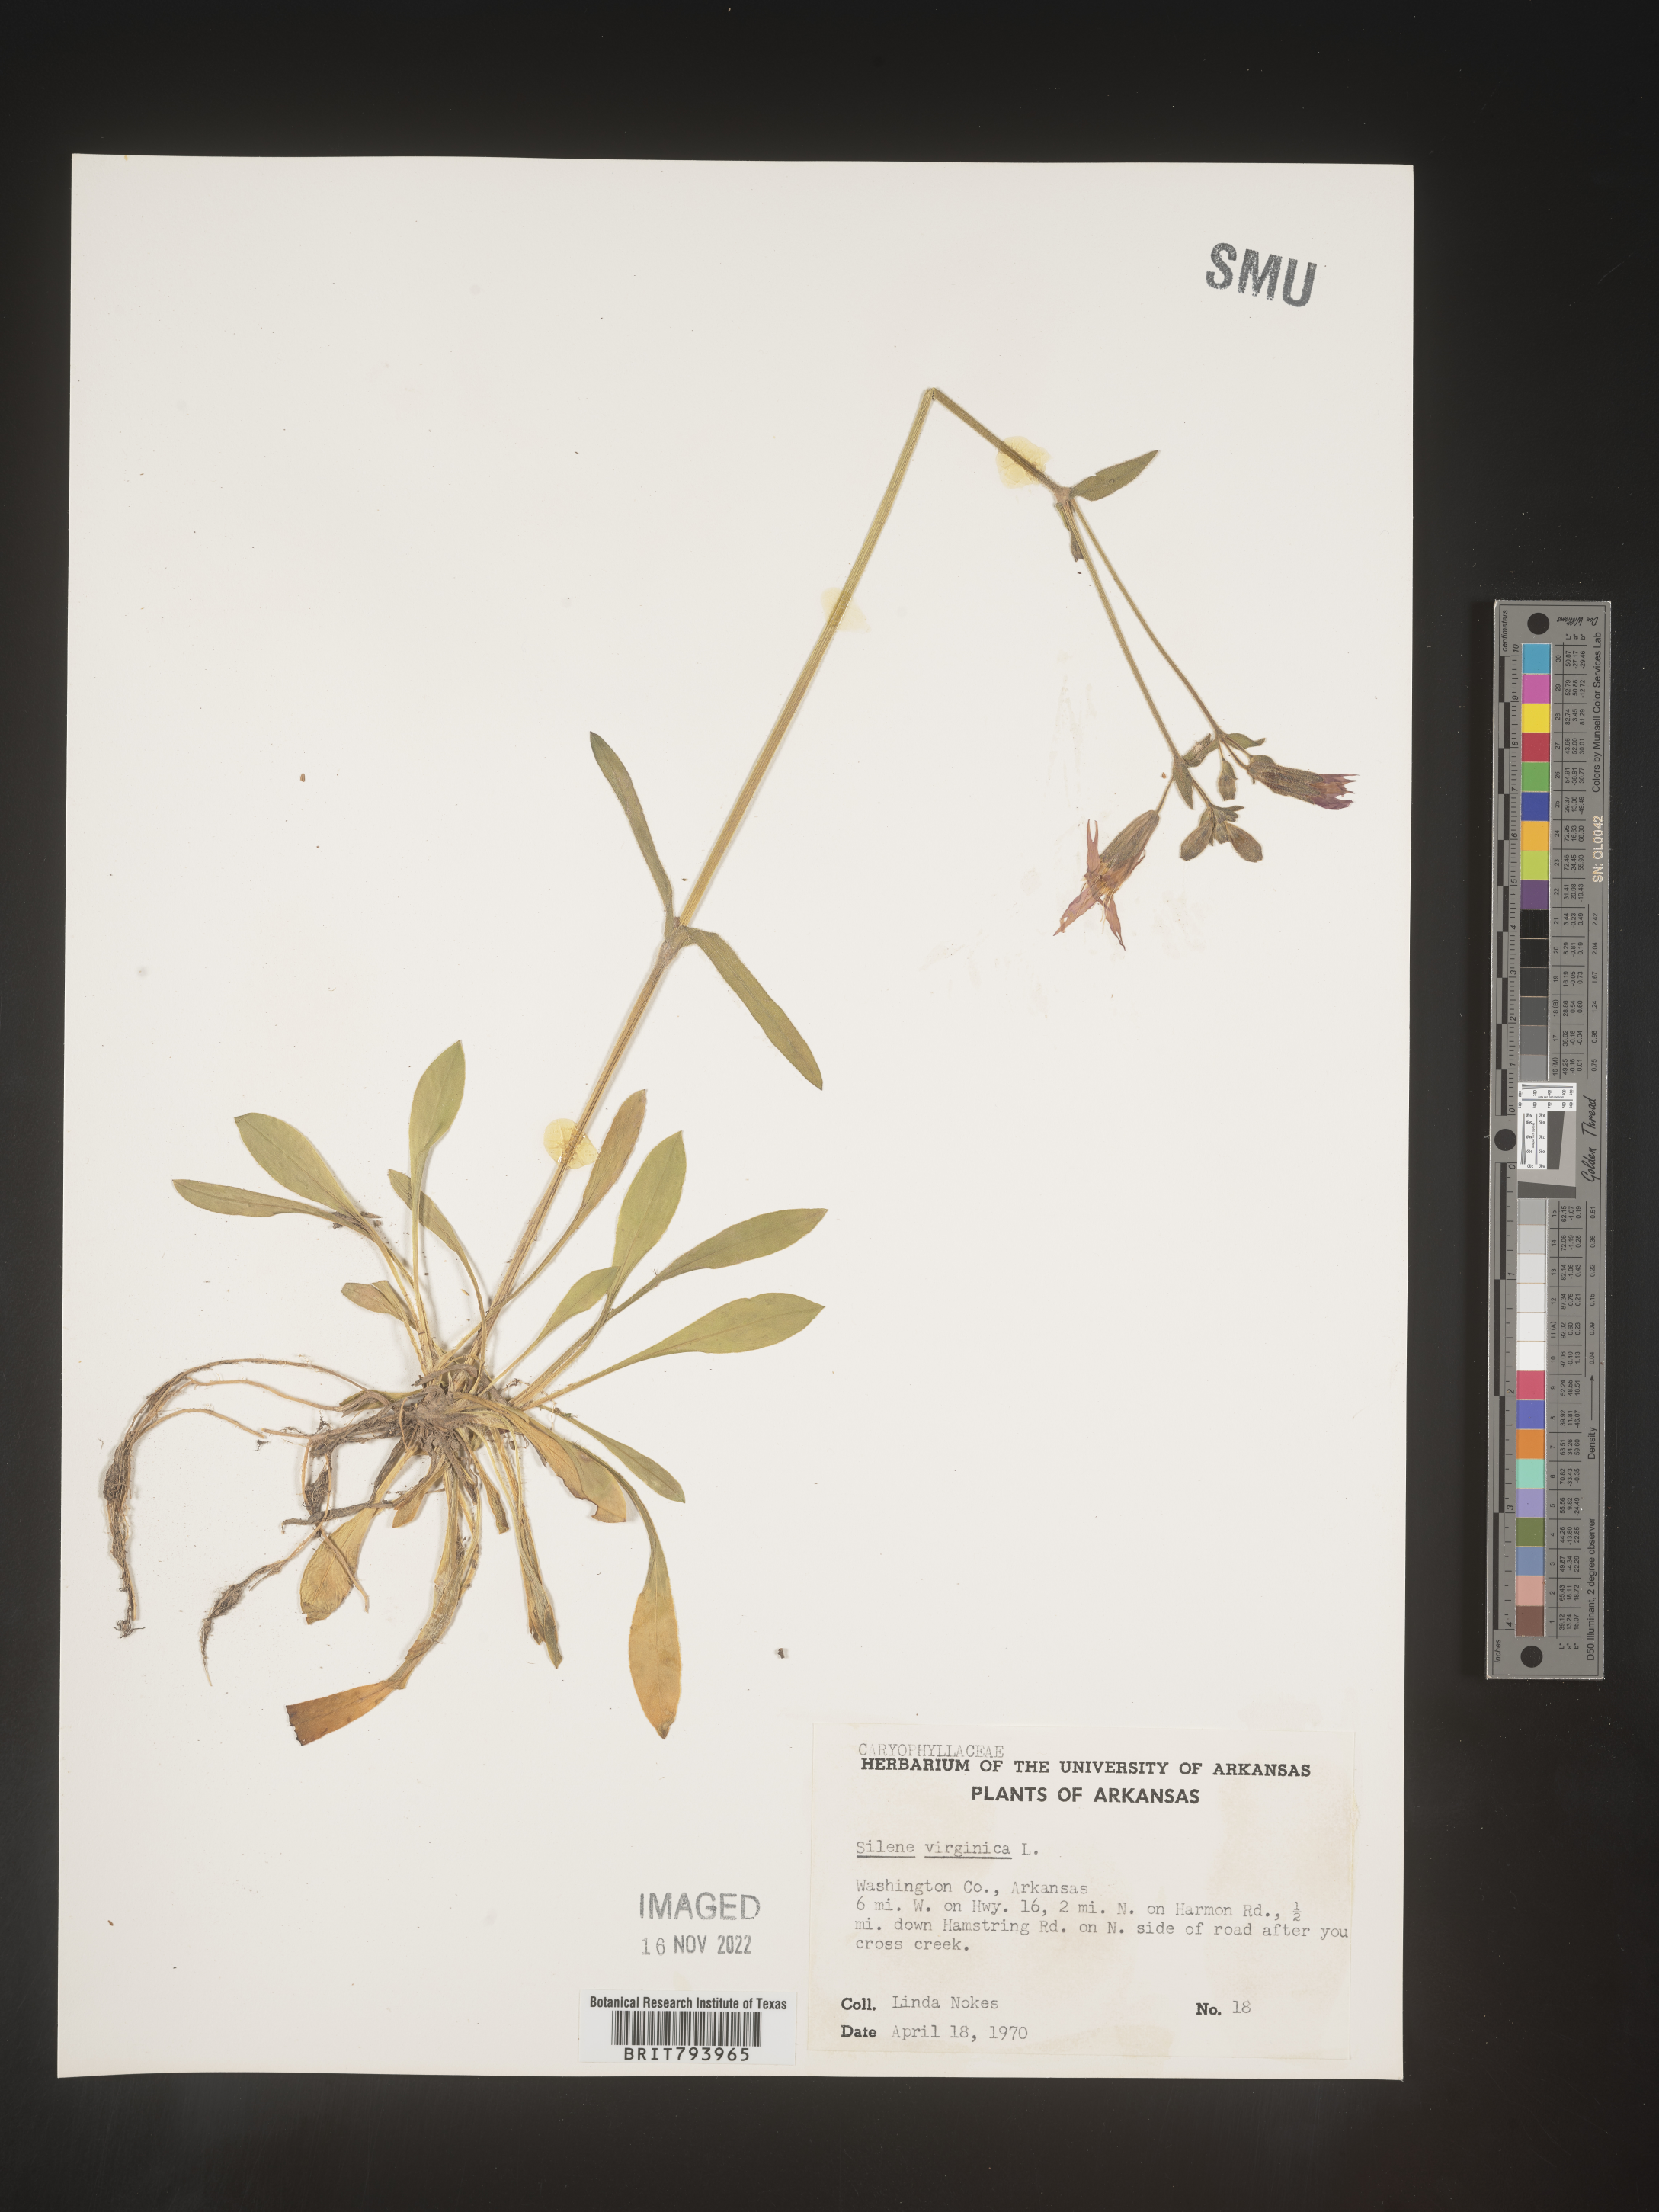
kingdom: Plantae
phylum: Tracheophyta
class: Magnoliopsida
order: Caryophyllales
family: Caryophyllaceae
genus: Silene
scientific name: Silene virginica
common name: Fire-pink
